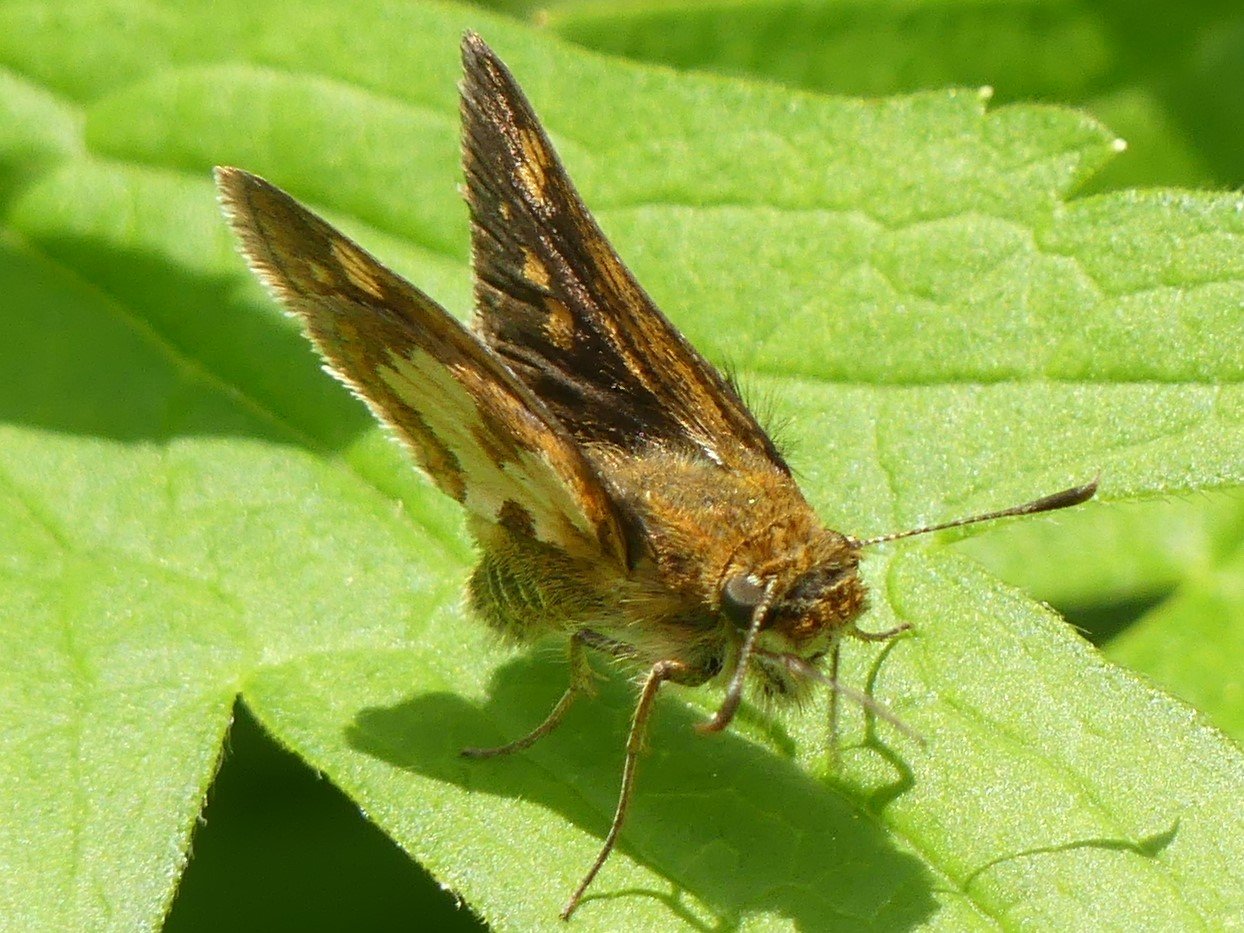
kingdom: Animalia
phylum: Arthropoda
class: Insecta
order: Lepidoptera
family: Hesperiidae
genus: Polites
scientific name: Polites coras
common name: Peck's Skipper
